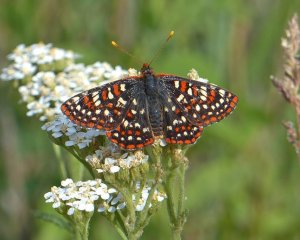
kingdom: Animalia
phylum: Arthropoda
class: Insecta
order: Lepidoptera
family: Nymphalidae
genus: Occidryas
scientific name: Occidryas anicia
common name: Anicia Checkerspot
